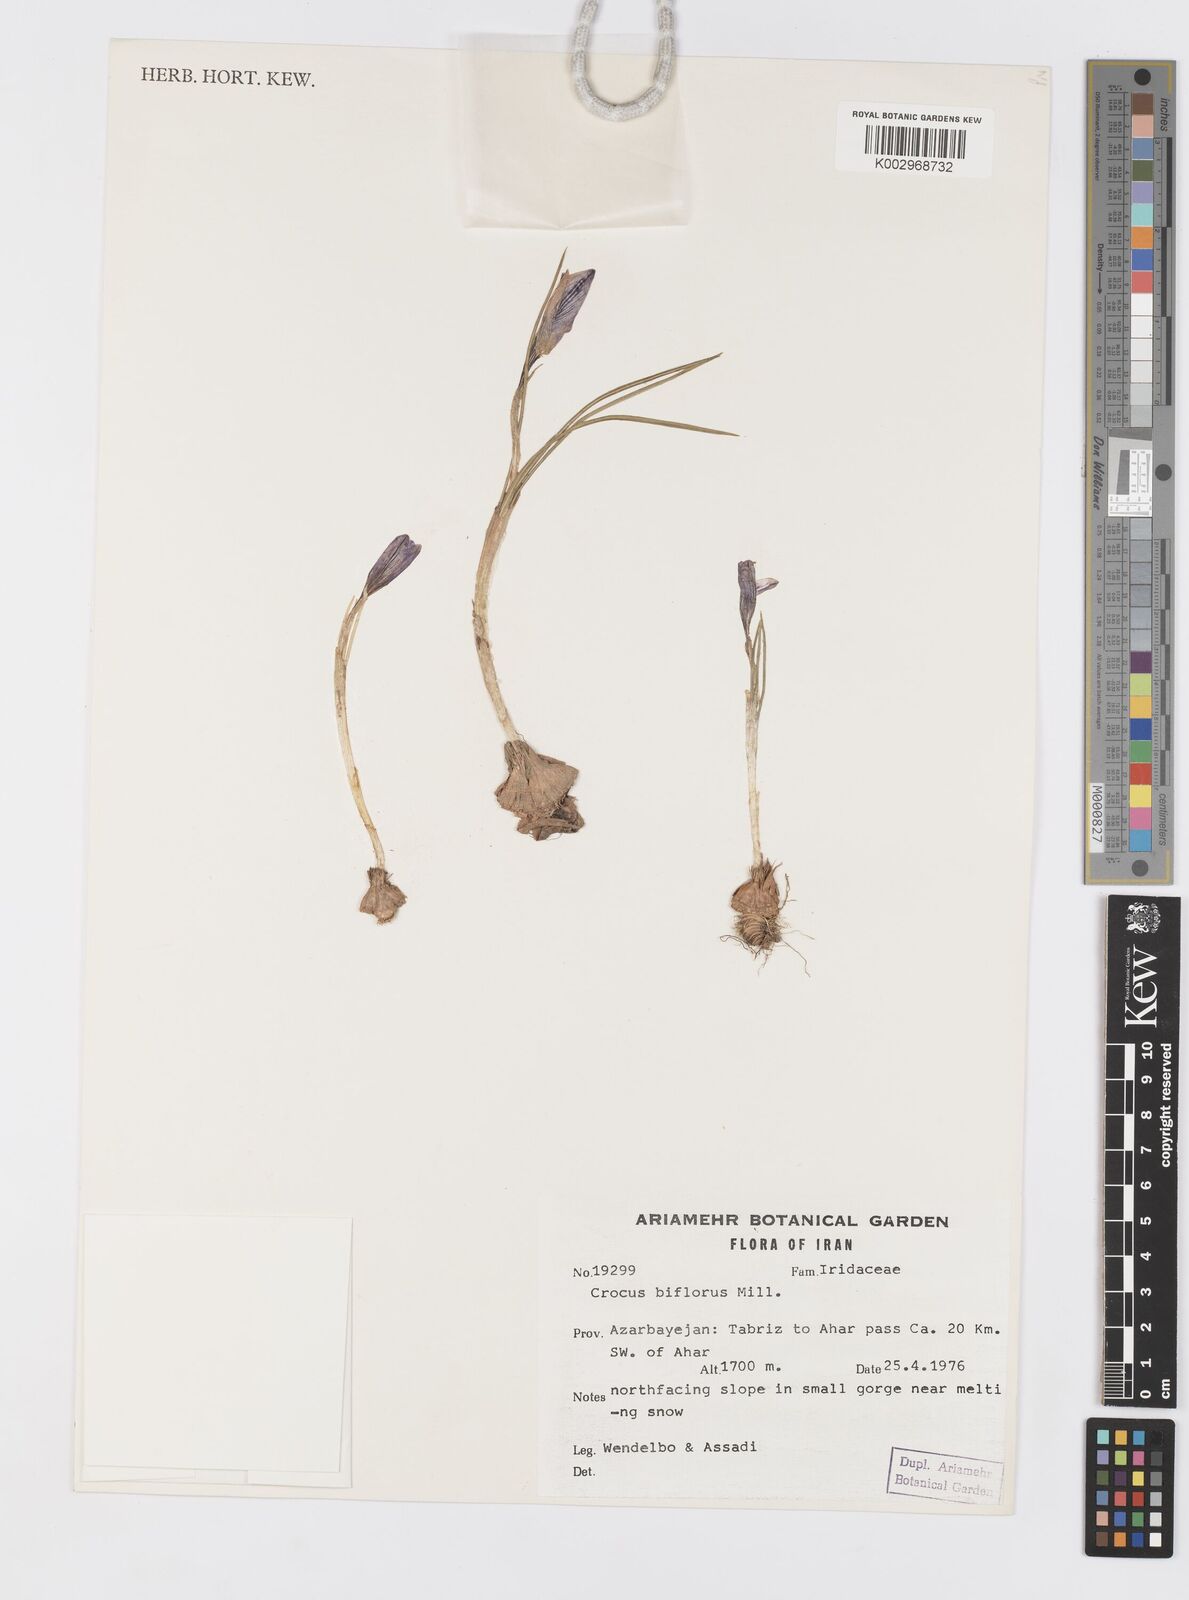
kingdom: Plantae
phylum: Tracheophyta
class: Liliopsida
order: Asparagales
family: Iridaceae
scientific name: Iridaceae
